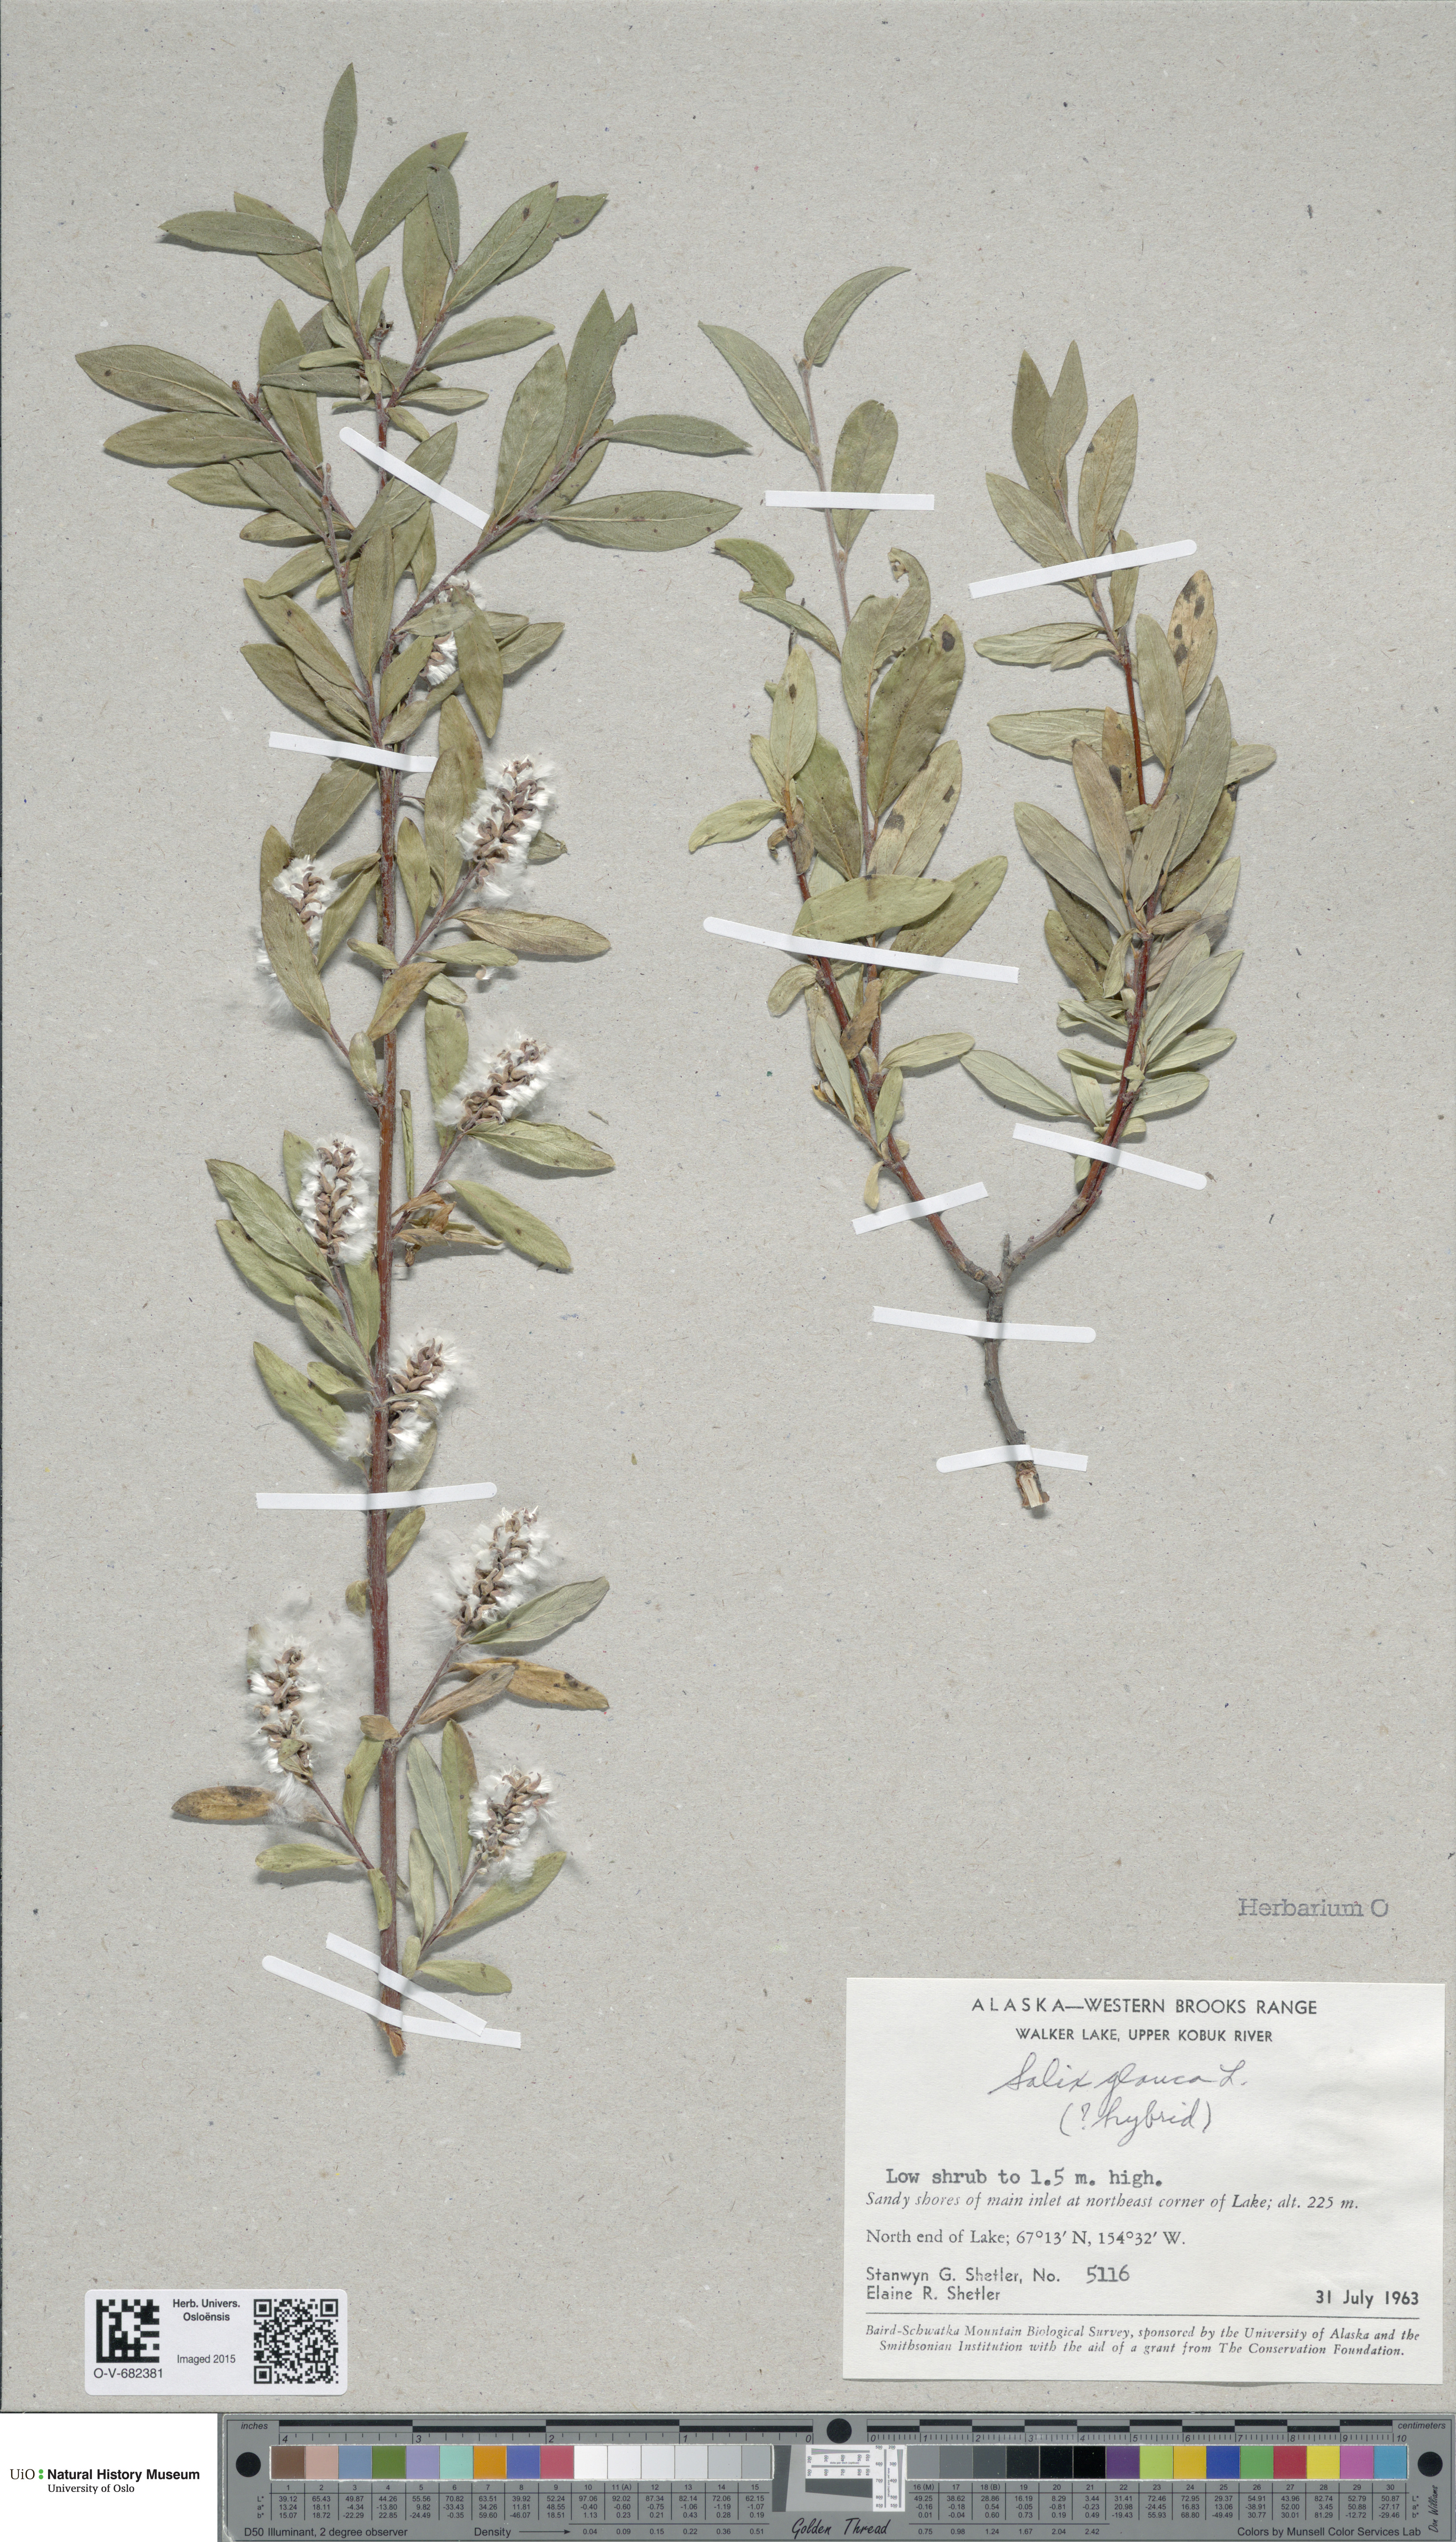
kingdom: Plantae
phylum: Tracheophyta
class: Magnoliopsida
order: Malpighiales
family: Salicaceae
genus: Salix
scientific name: Salix glauca
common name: Glaucous willow
